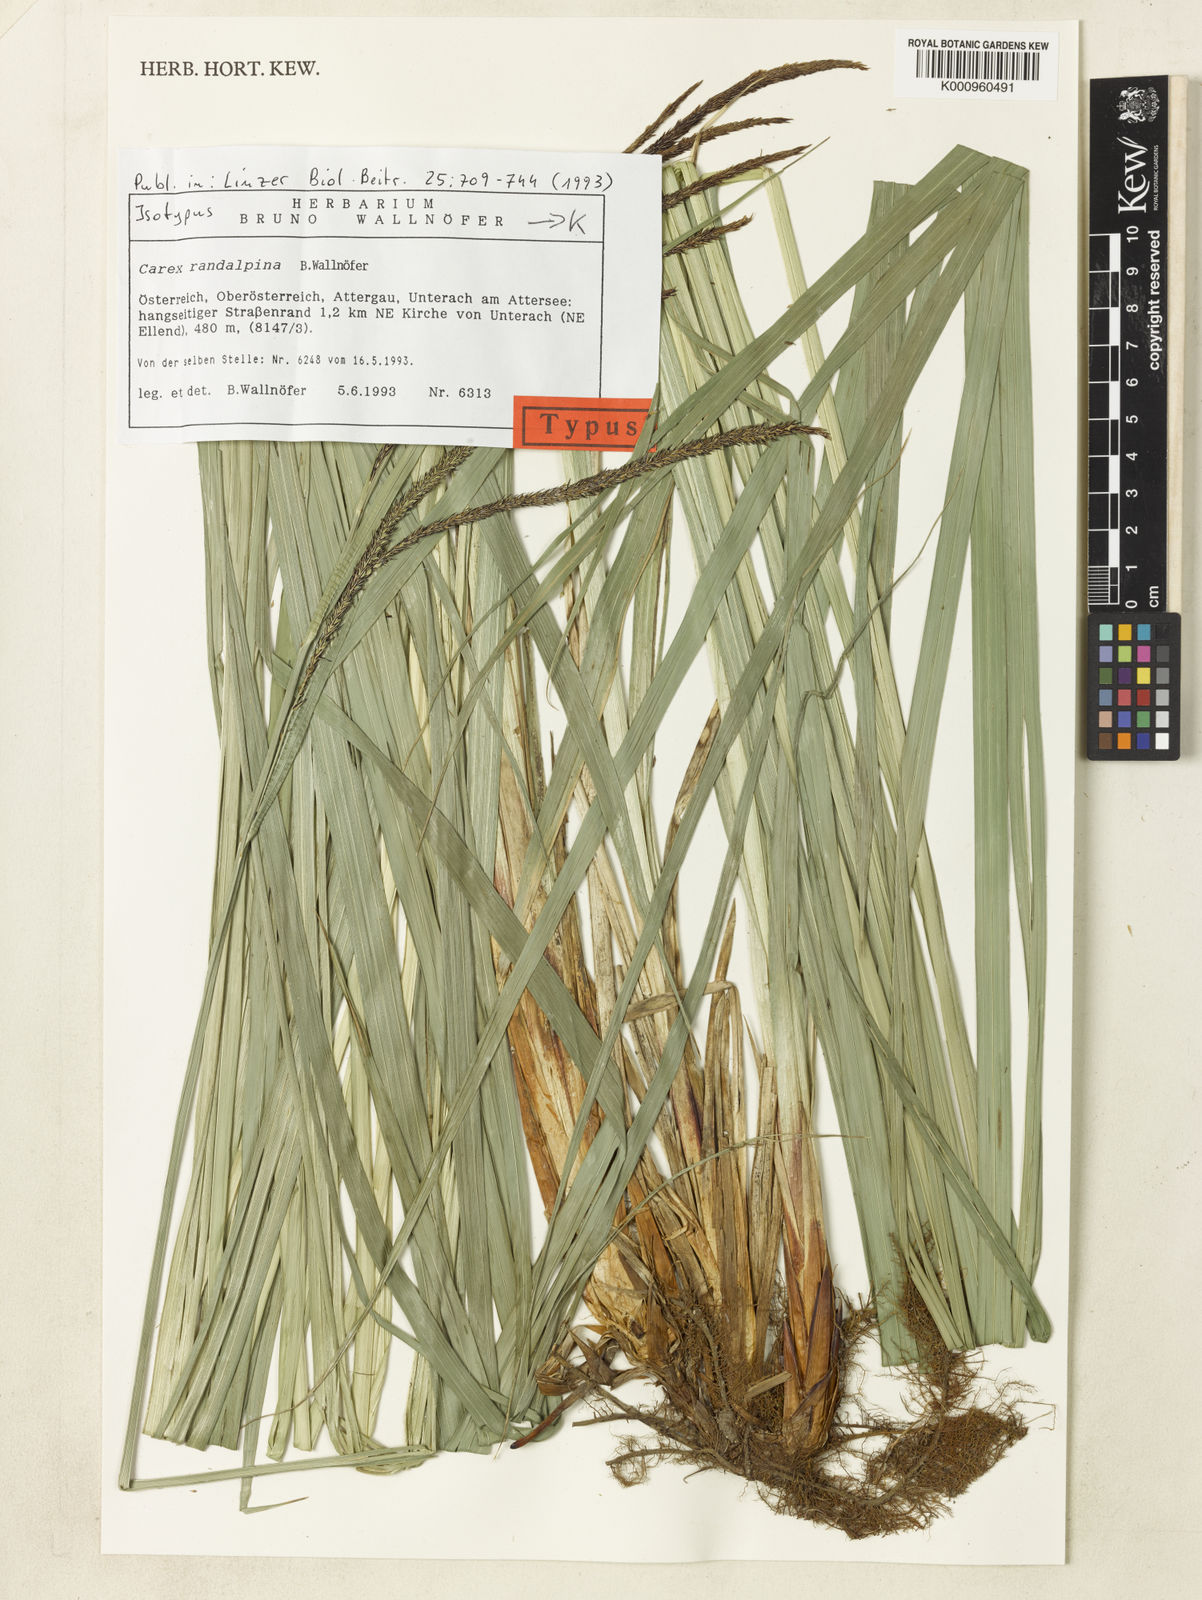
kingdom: Plantae
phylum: Tracheophyta
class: Liliopsida
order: Poales
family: Cyperaceae
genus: Carex
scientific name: Carex randalpina
